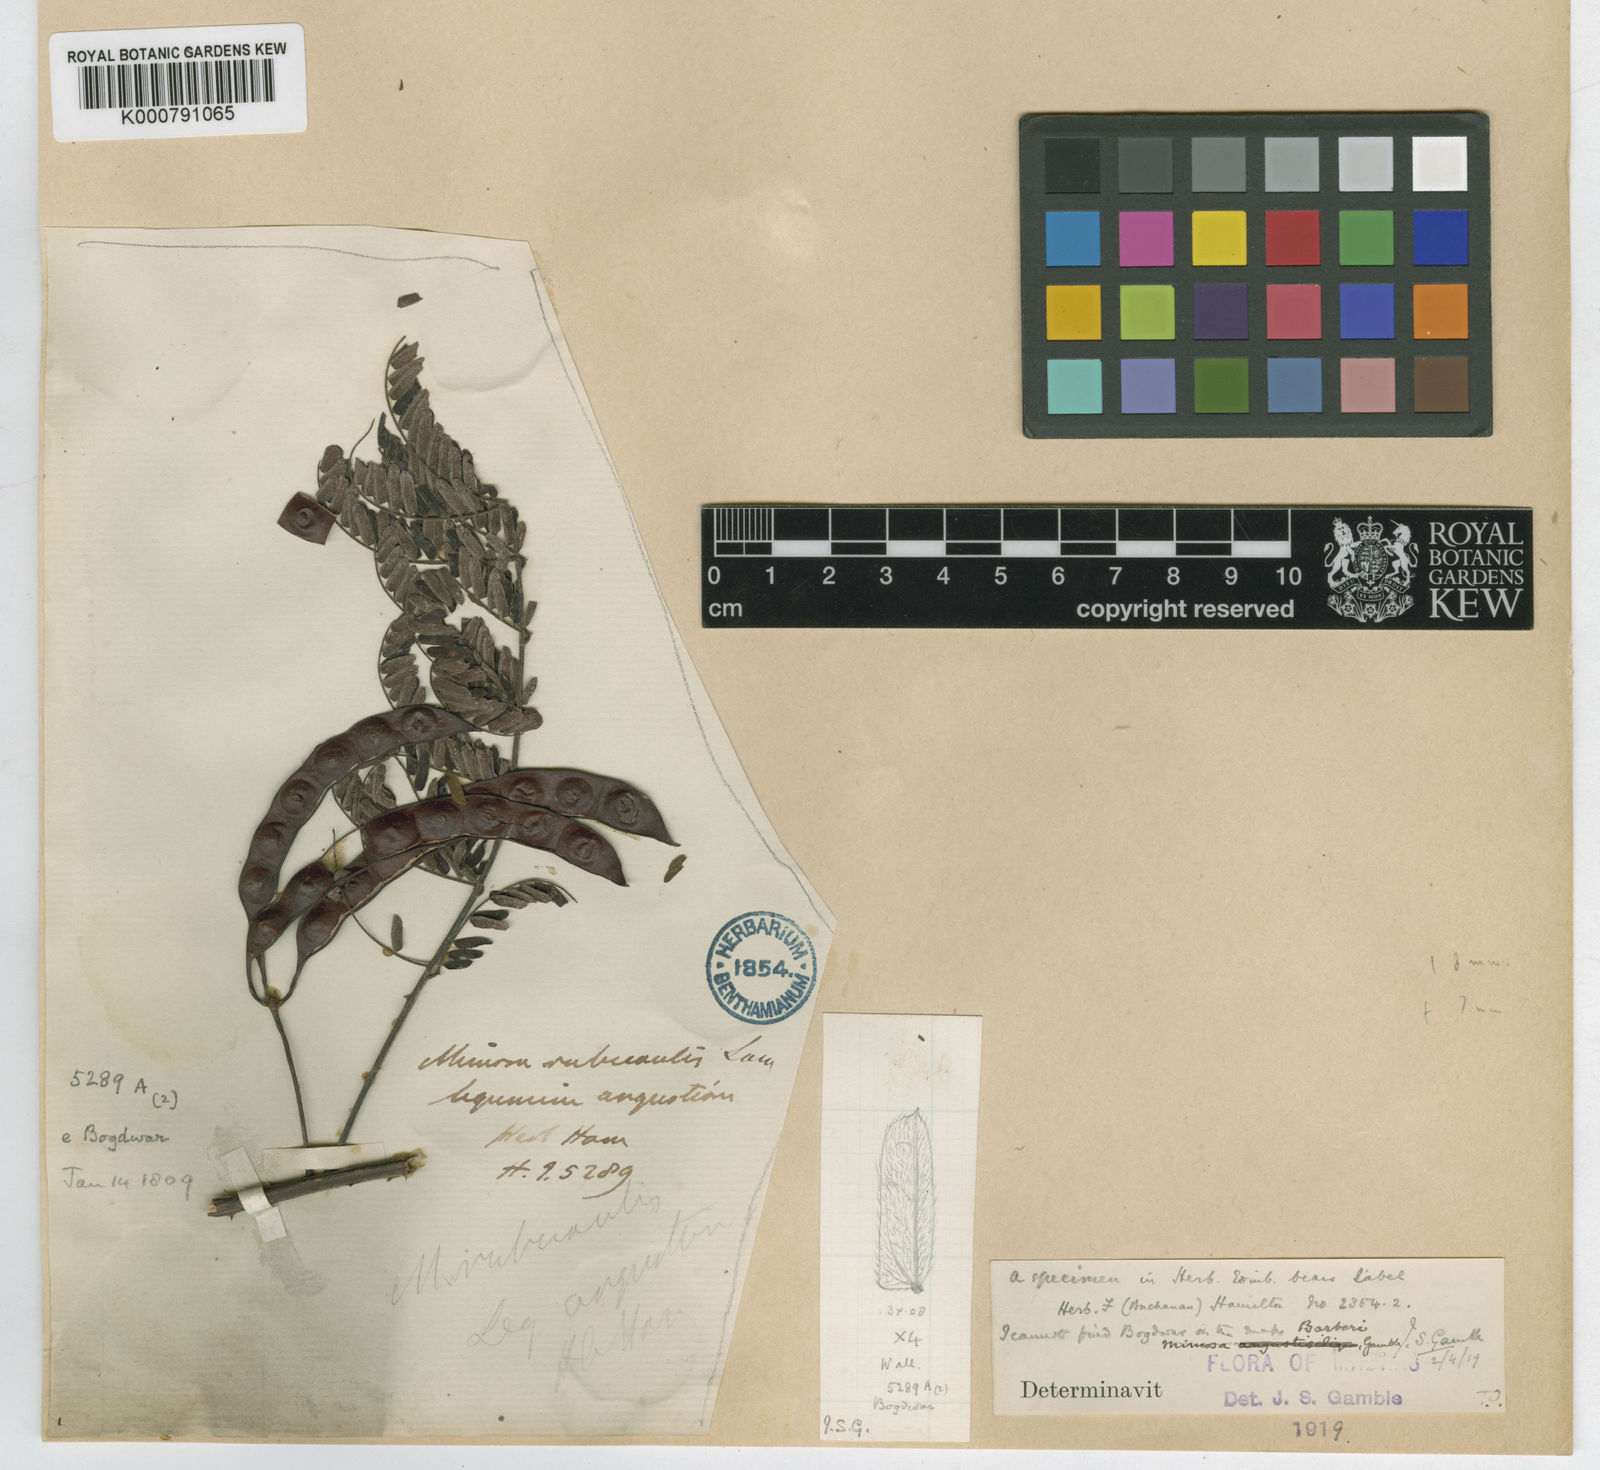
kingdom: Plantae
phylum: Tracheophyta
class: Magnoliopsida
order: Fabales
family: Fabaceae
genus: Mimosa
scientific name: Mimosa barberi
